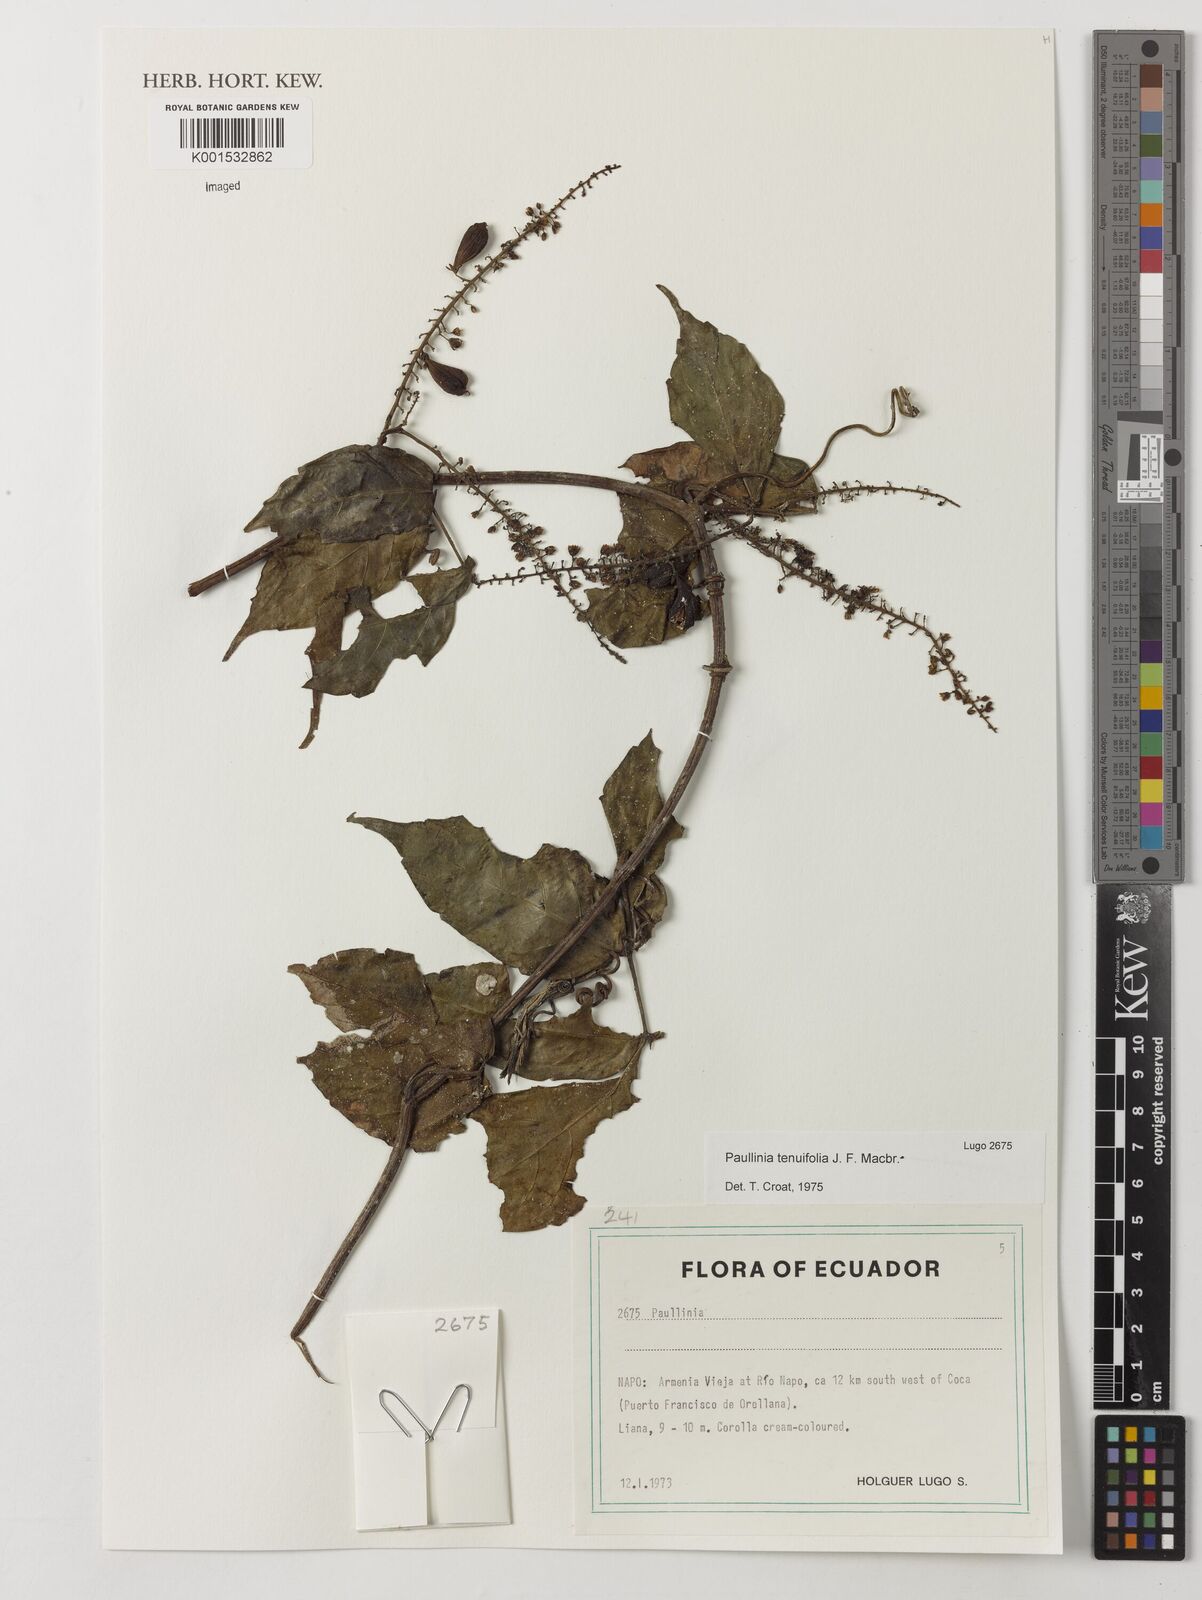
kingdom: Plantae
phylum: Tracheophyta
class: Magnoliopsida
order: Sapindales
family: Sapindaceae
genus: Paullinia
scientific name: Paullinia tenuifolia
